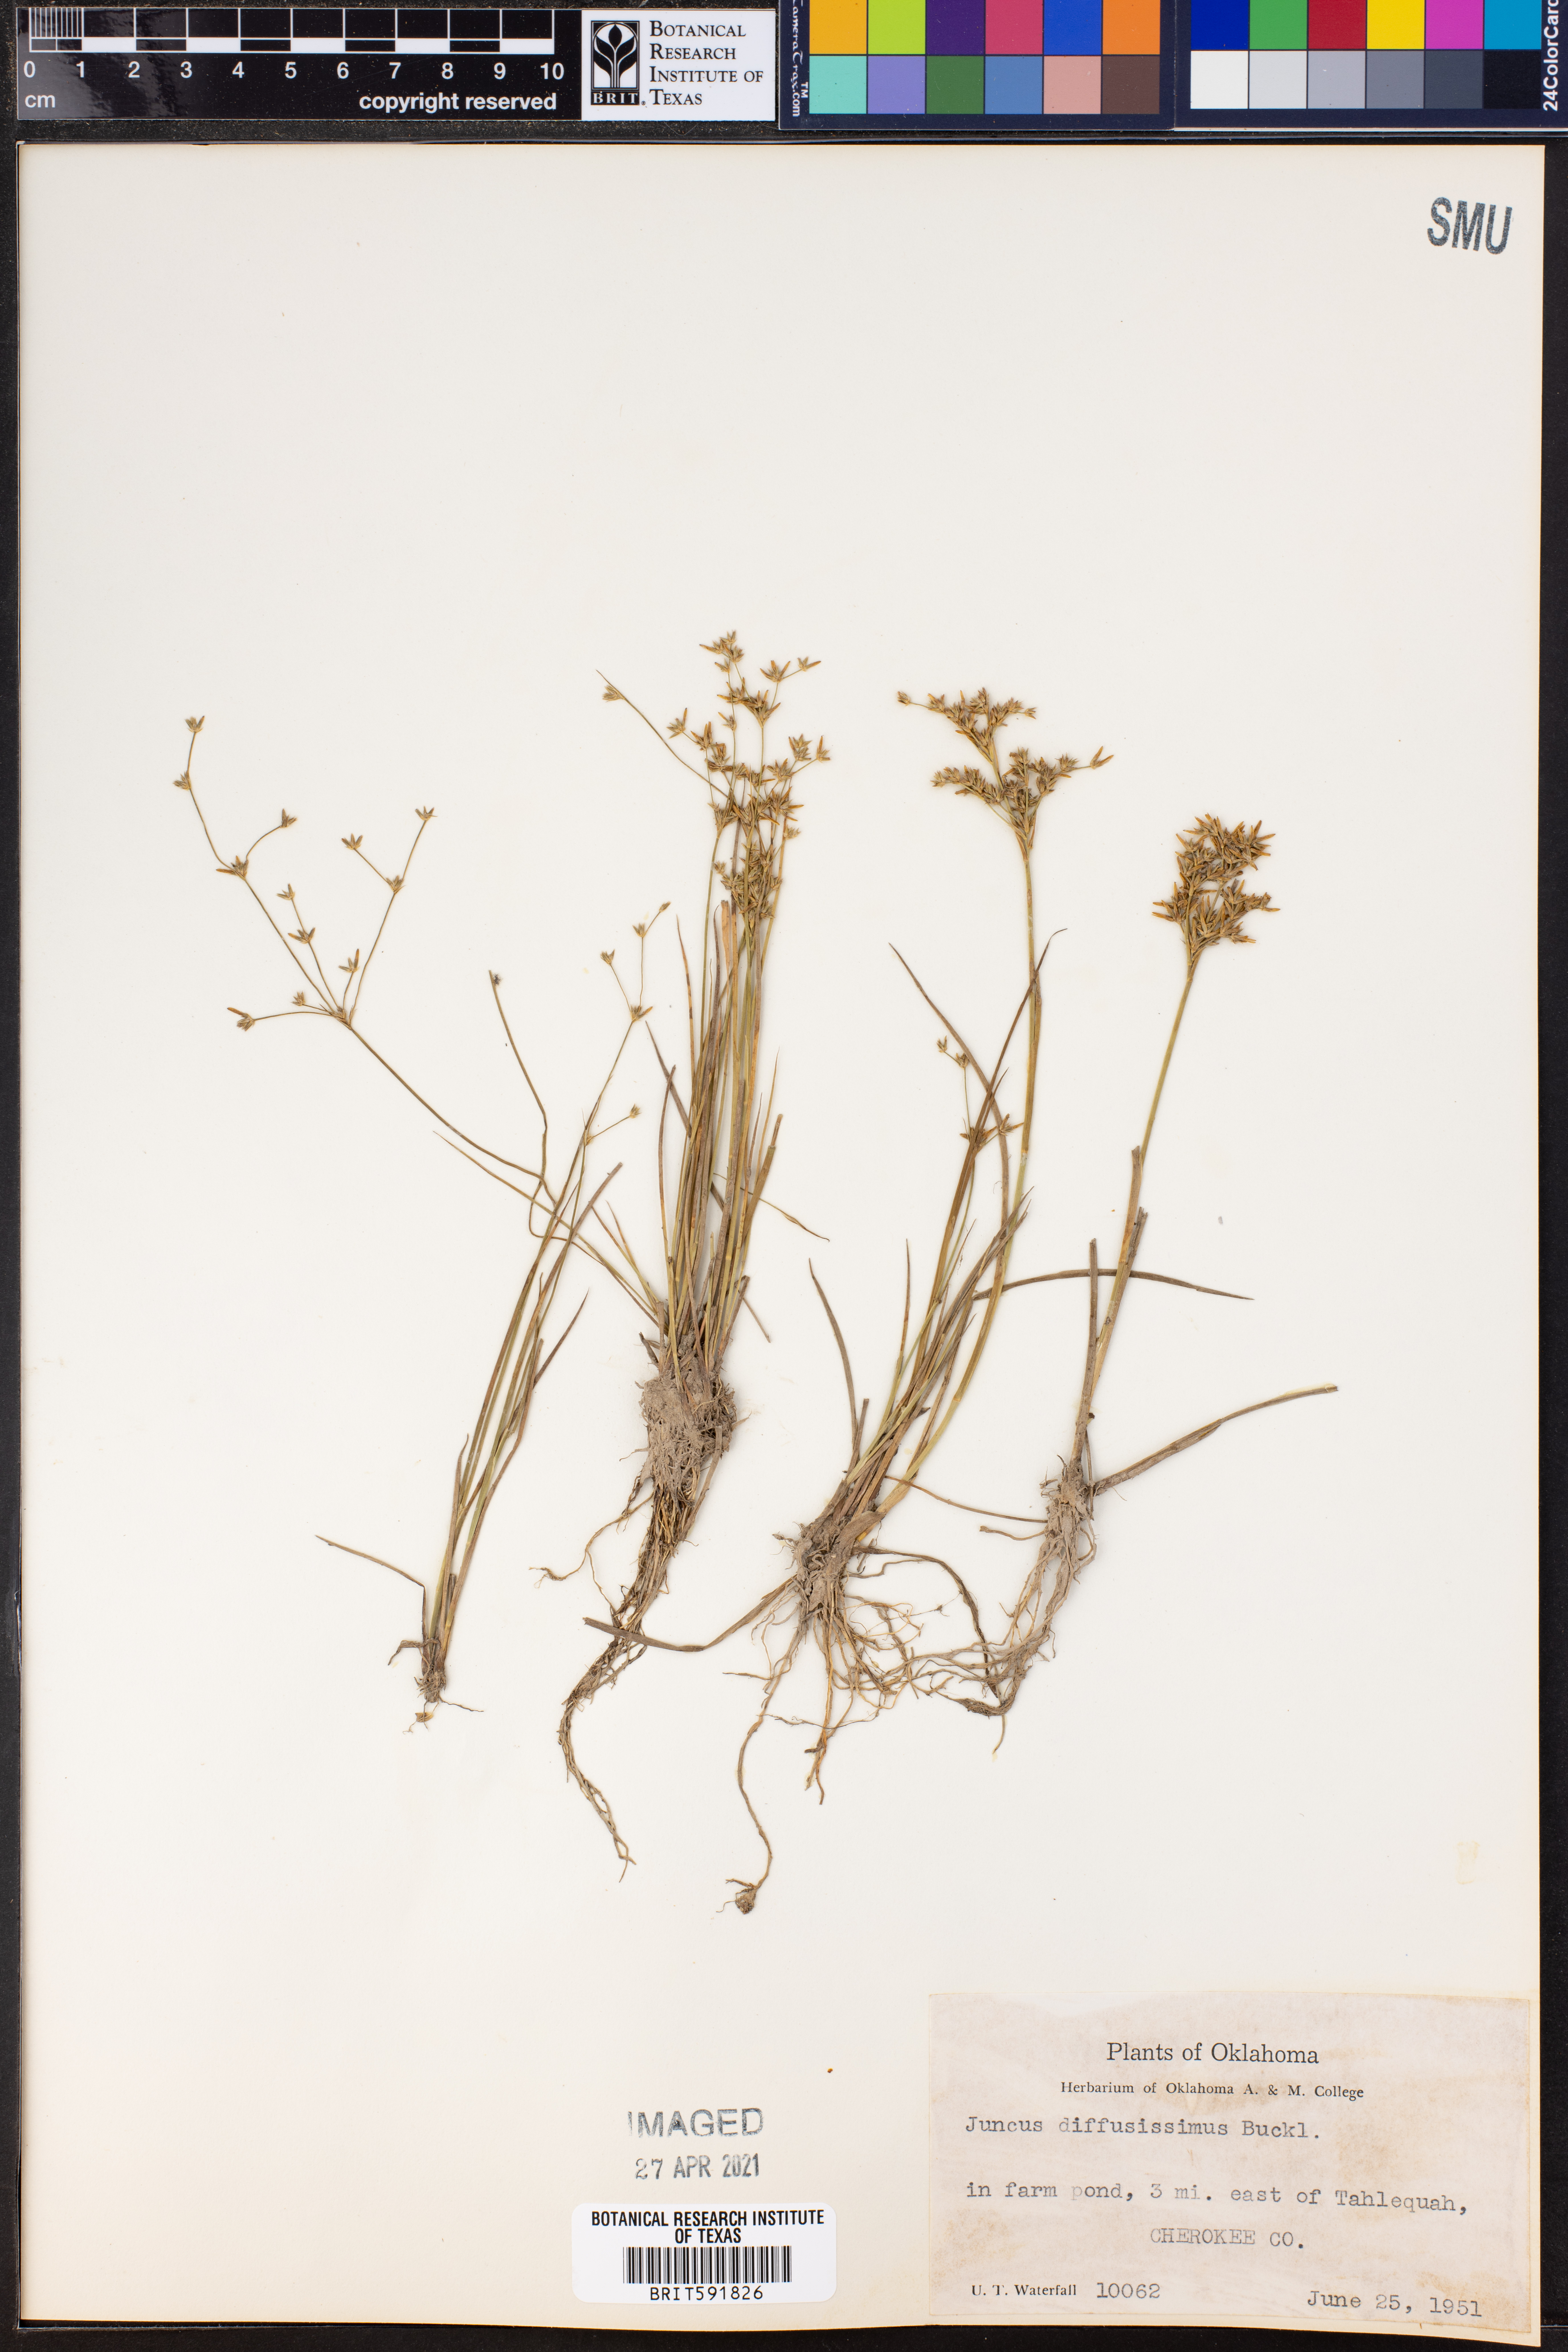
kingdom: Plantae
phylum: Tracheophyta
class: Liliopsida
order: Poales
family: Juncaceae
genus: Juncus
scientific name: Juncus diffusissimus
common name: Slimpod rush
